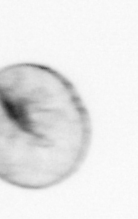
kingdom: Chromista
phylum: Myzozoa
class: Dinophyceae
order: Noctilucales
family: Noctilucaceae
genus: Noctiluca
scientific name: Noctiluca scintillans
